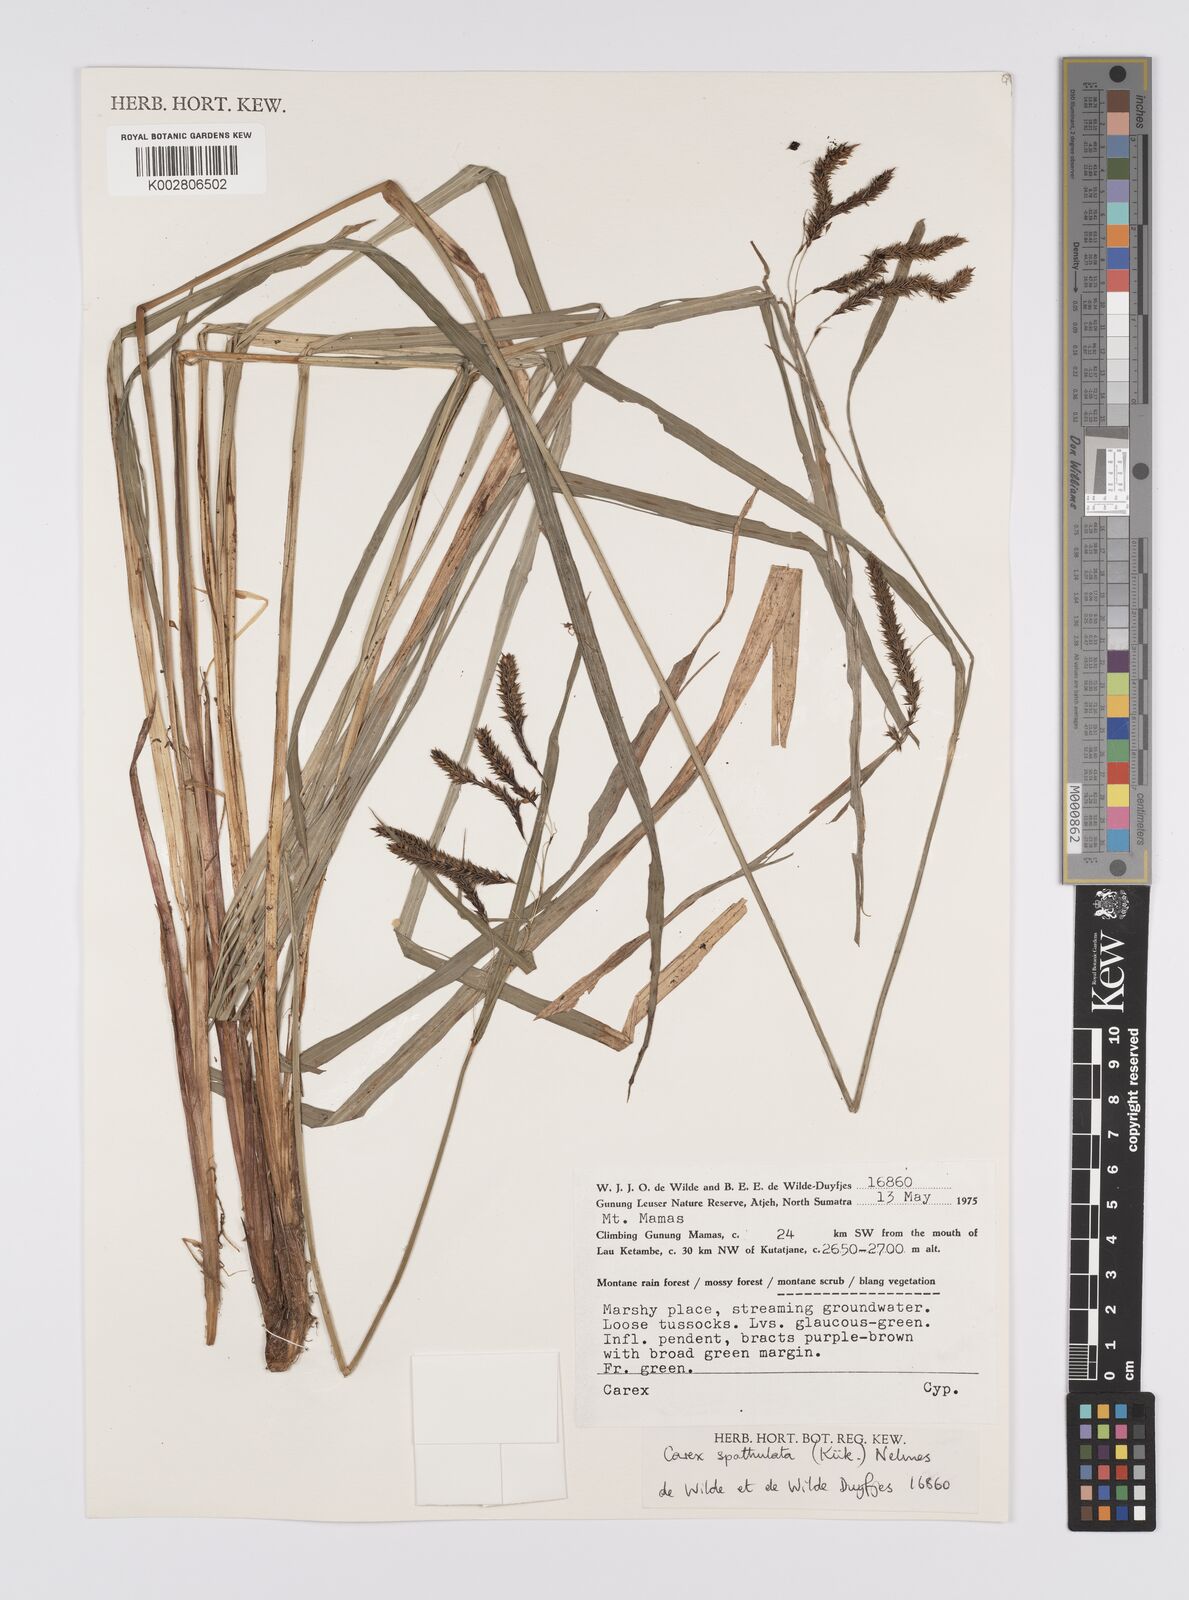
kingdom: Plantae
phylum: Tracheophyta
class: Liliopsida
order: Poales
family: Cyperaceae
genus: Carex
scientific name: Carex teres
